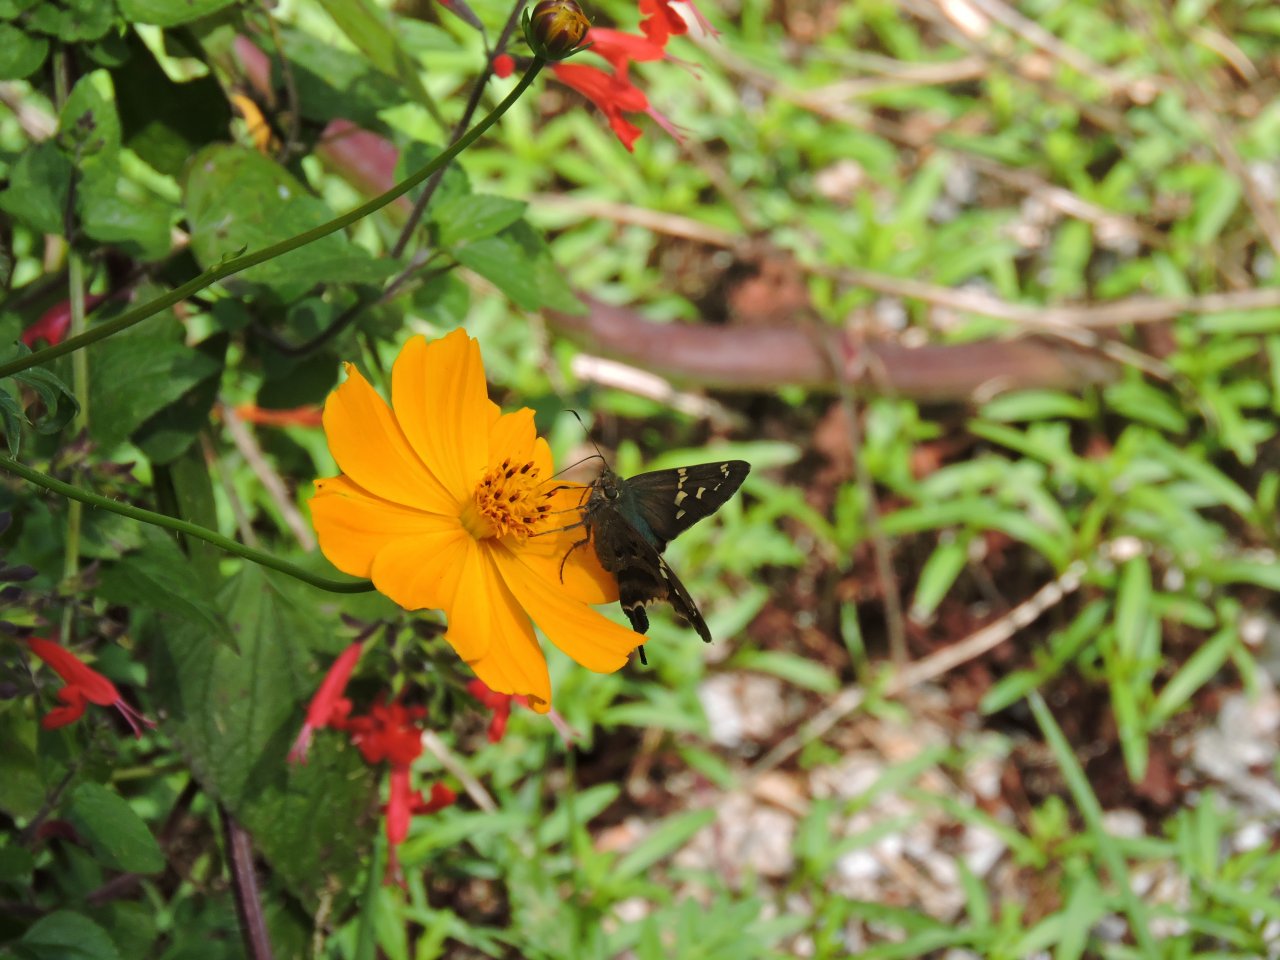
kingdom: Animalia
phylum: Arthropoda
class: Insecta
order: Lepidoptera
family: Hesperiidae
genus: Urbanus
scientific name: Urbanus proteus
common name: Long-tailed Skipper
